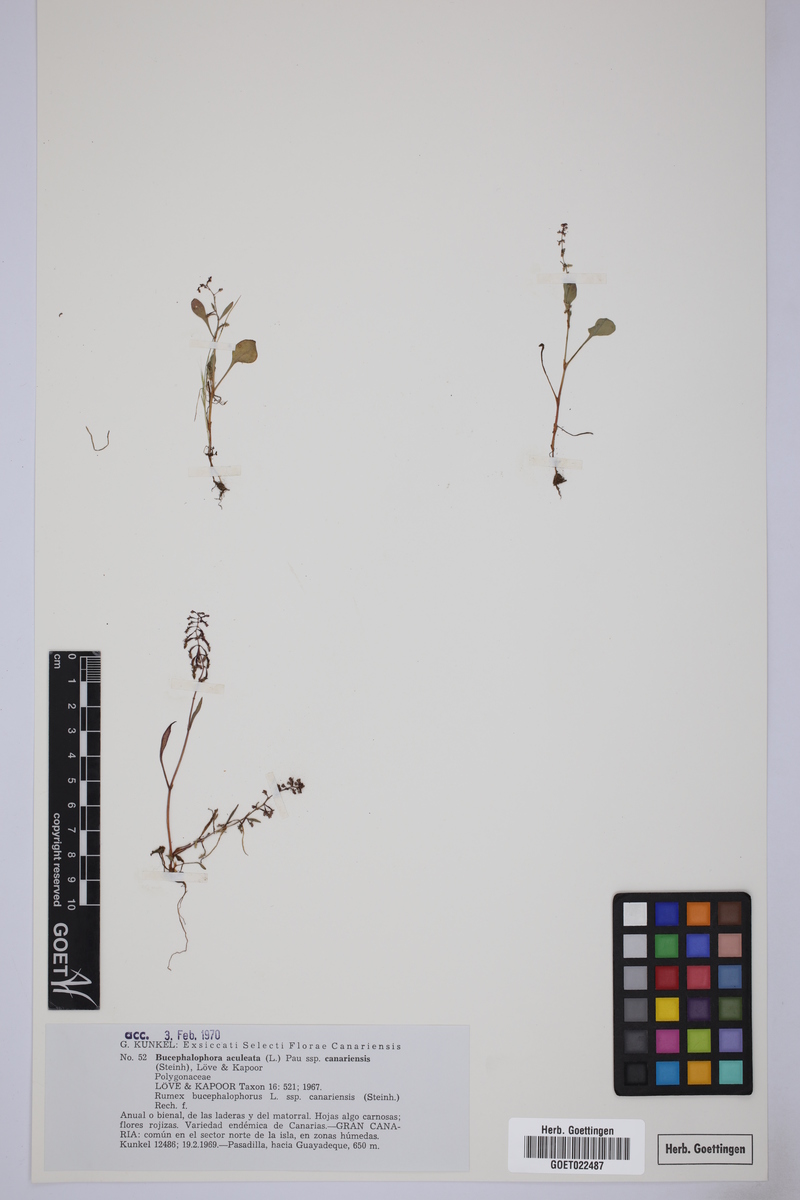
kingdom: Plantae
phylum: Tracheophyta
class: Magnoliopsida
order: Caryophyllales
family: Polygonaceae
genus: Rumex
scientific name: Rumex bucephalophorus
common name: Red dock
